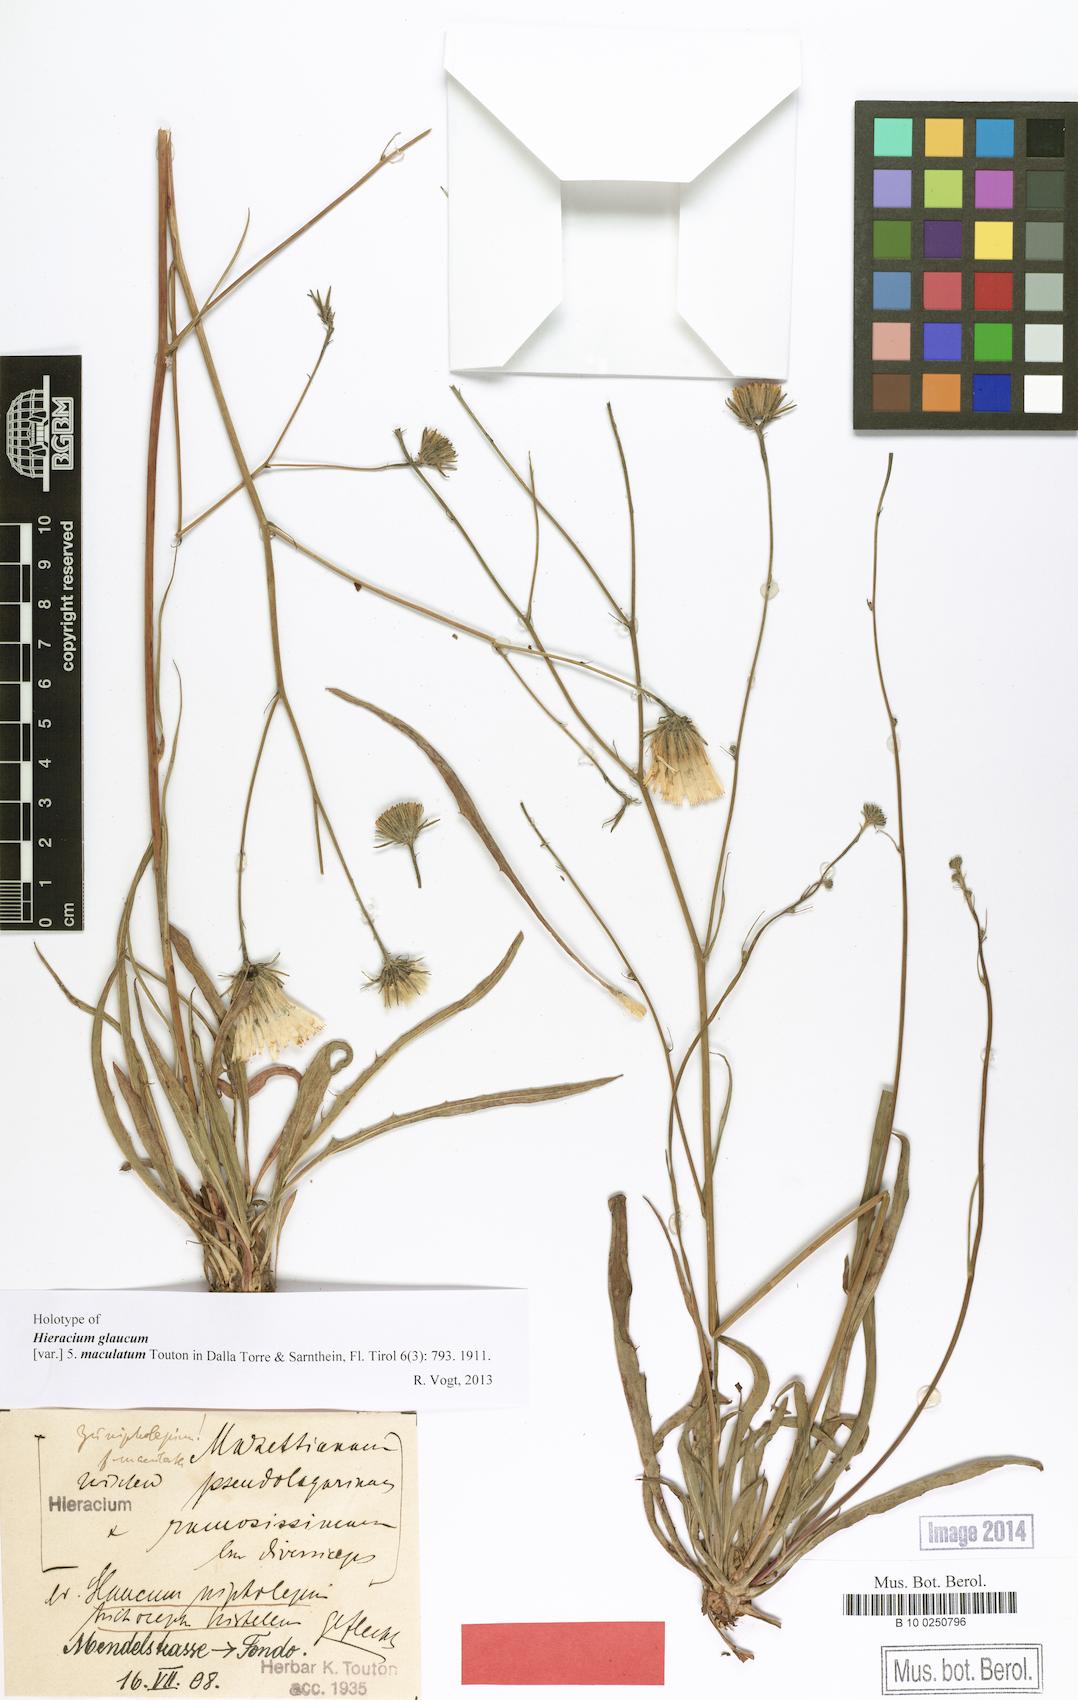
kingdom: Plantae
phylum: Tracheophyta
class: Magnoliopsida
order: Asterales
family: Asteraceae
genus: Hieracium
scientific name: Hieracium glaucum
